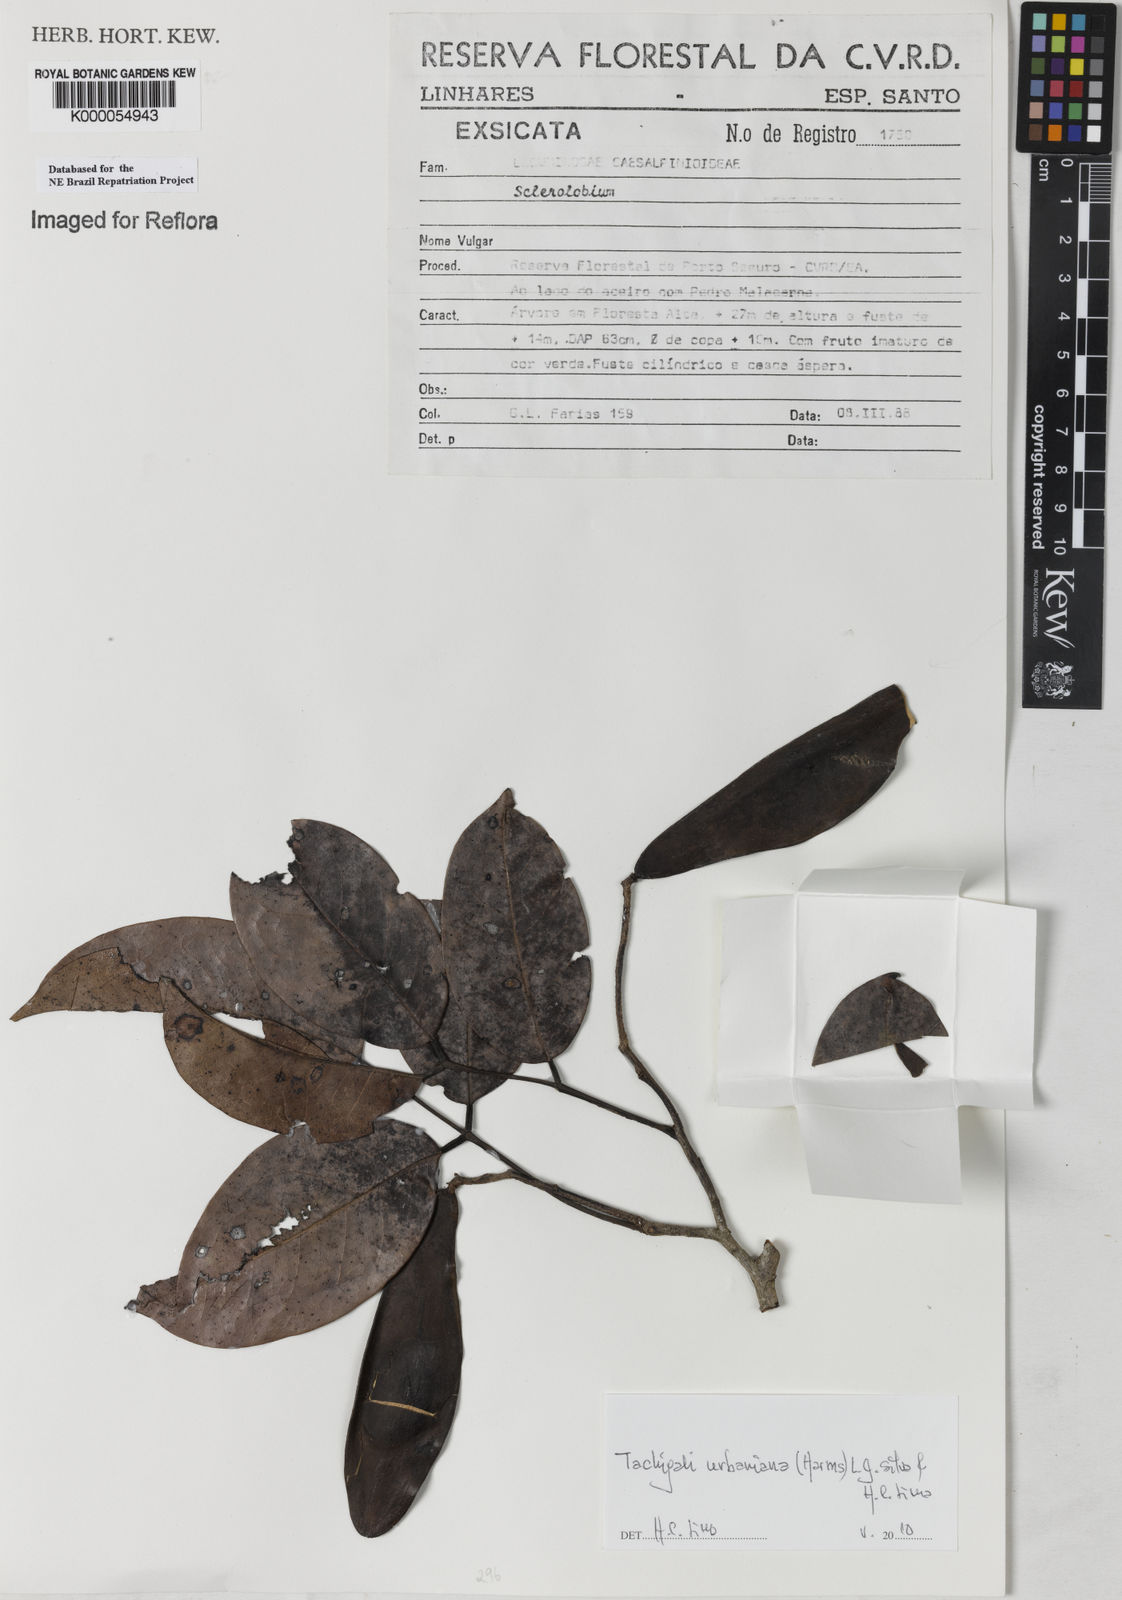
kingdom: Plantae
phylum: Tracheophyta
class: Magnoliopsida
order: Fabales
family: Fabaceae
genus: Tachigali
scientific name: Tachigali
